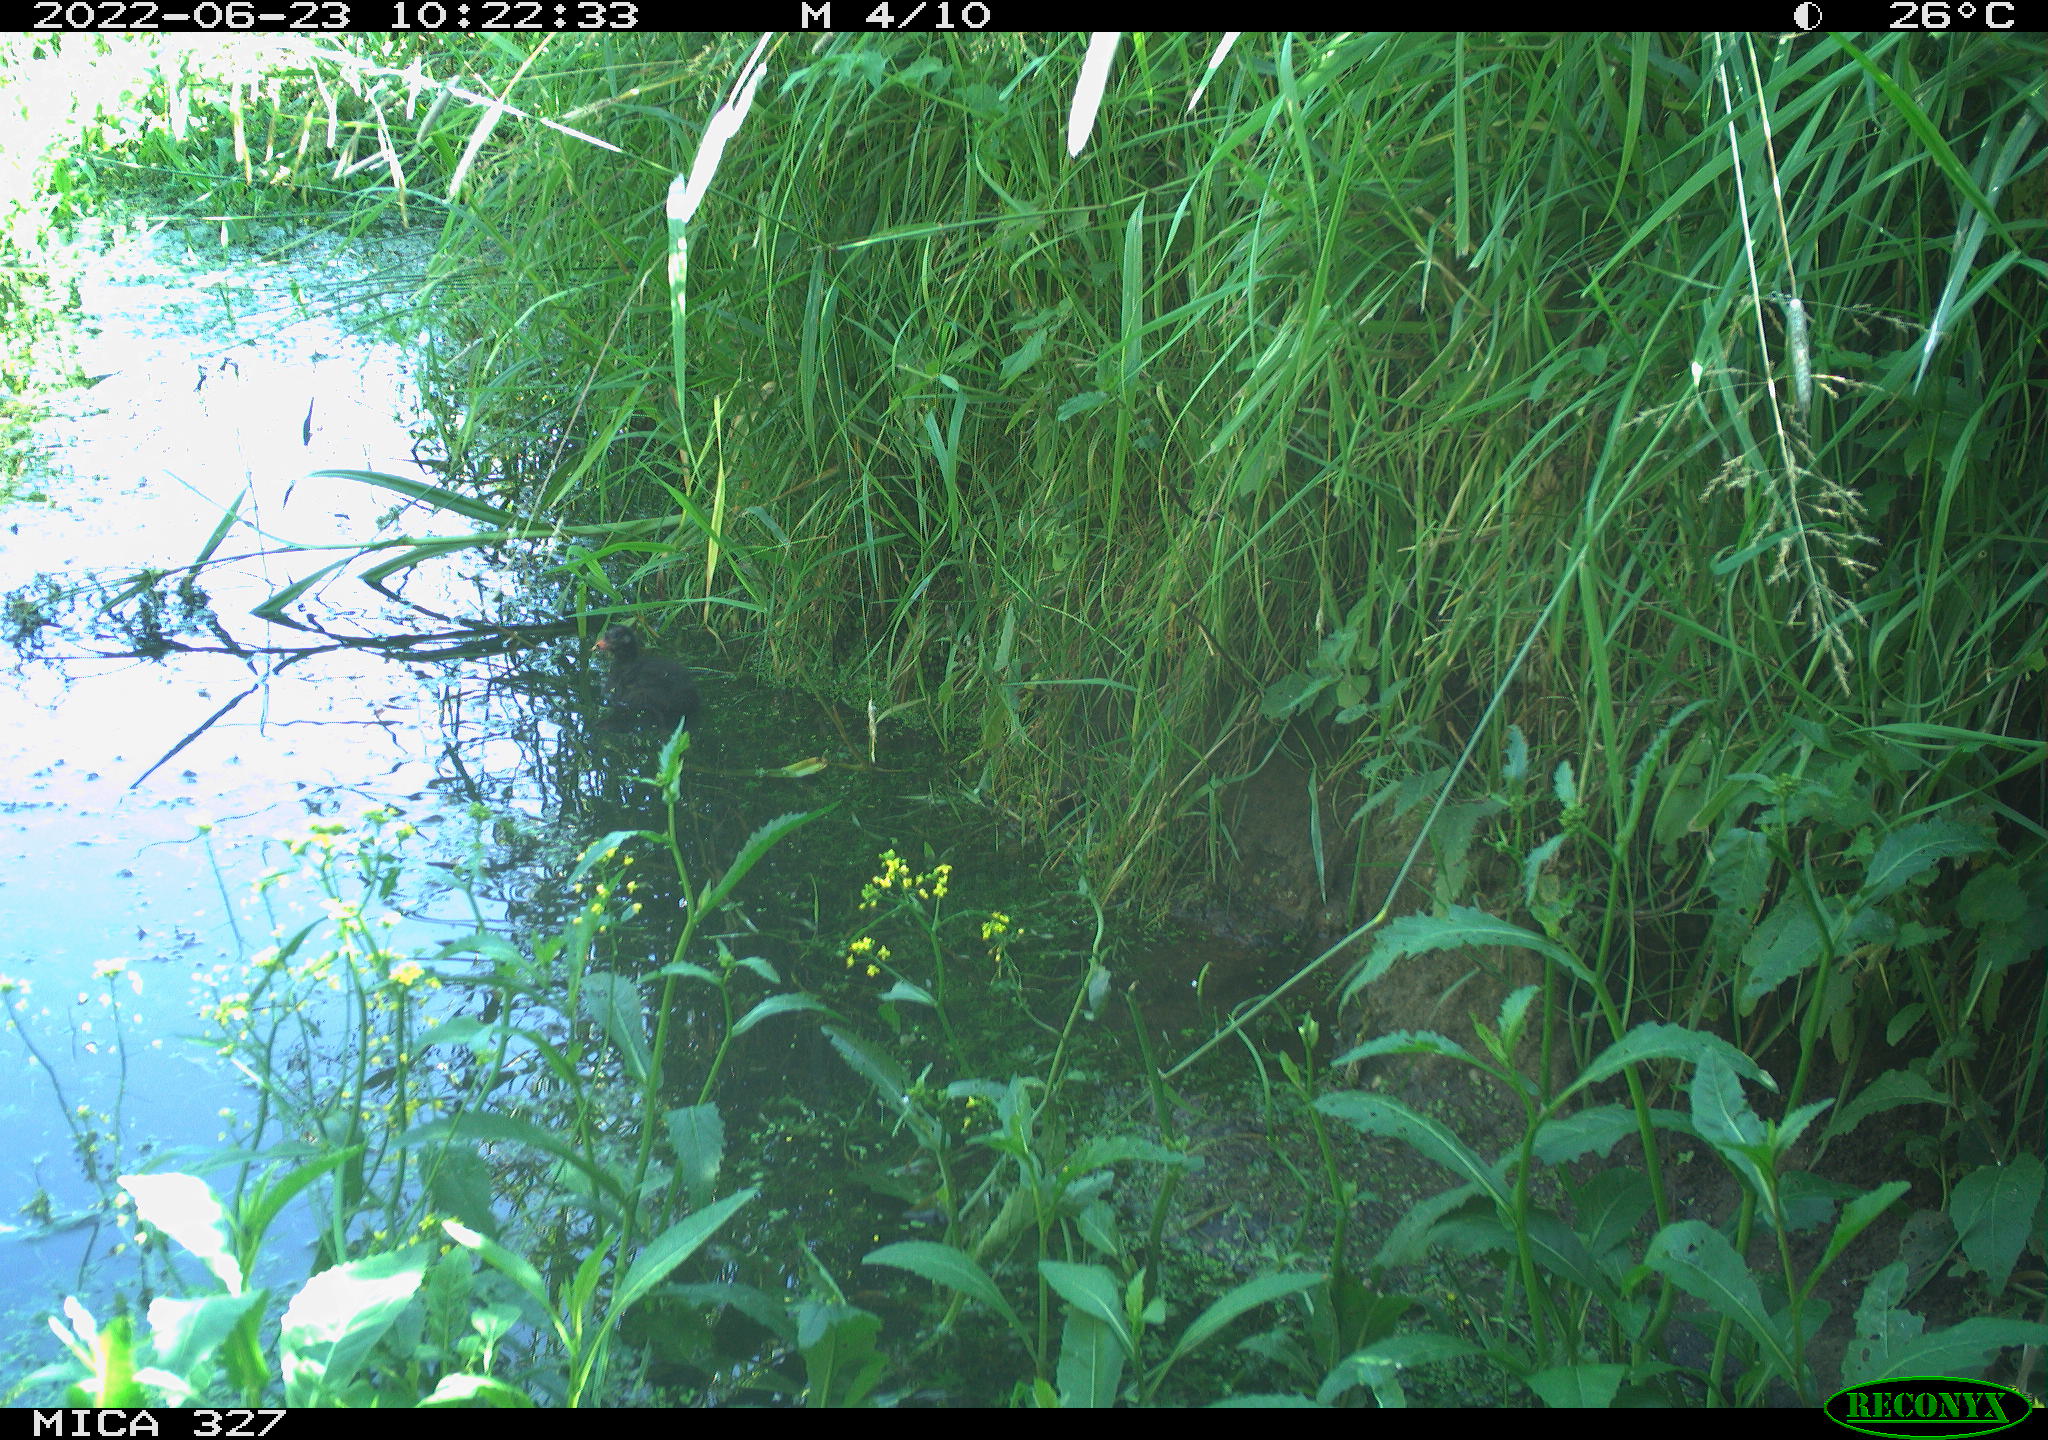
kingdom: Animalia
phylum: Chordata
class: Aves
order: Gruiformes
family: Rallidae
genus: Gallinula
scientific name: Gallinula chloropus
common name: Common moorhen
